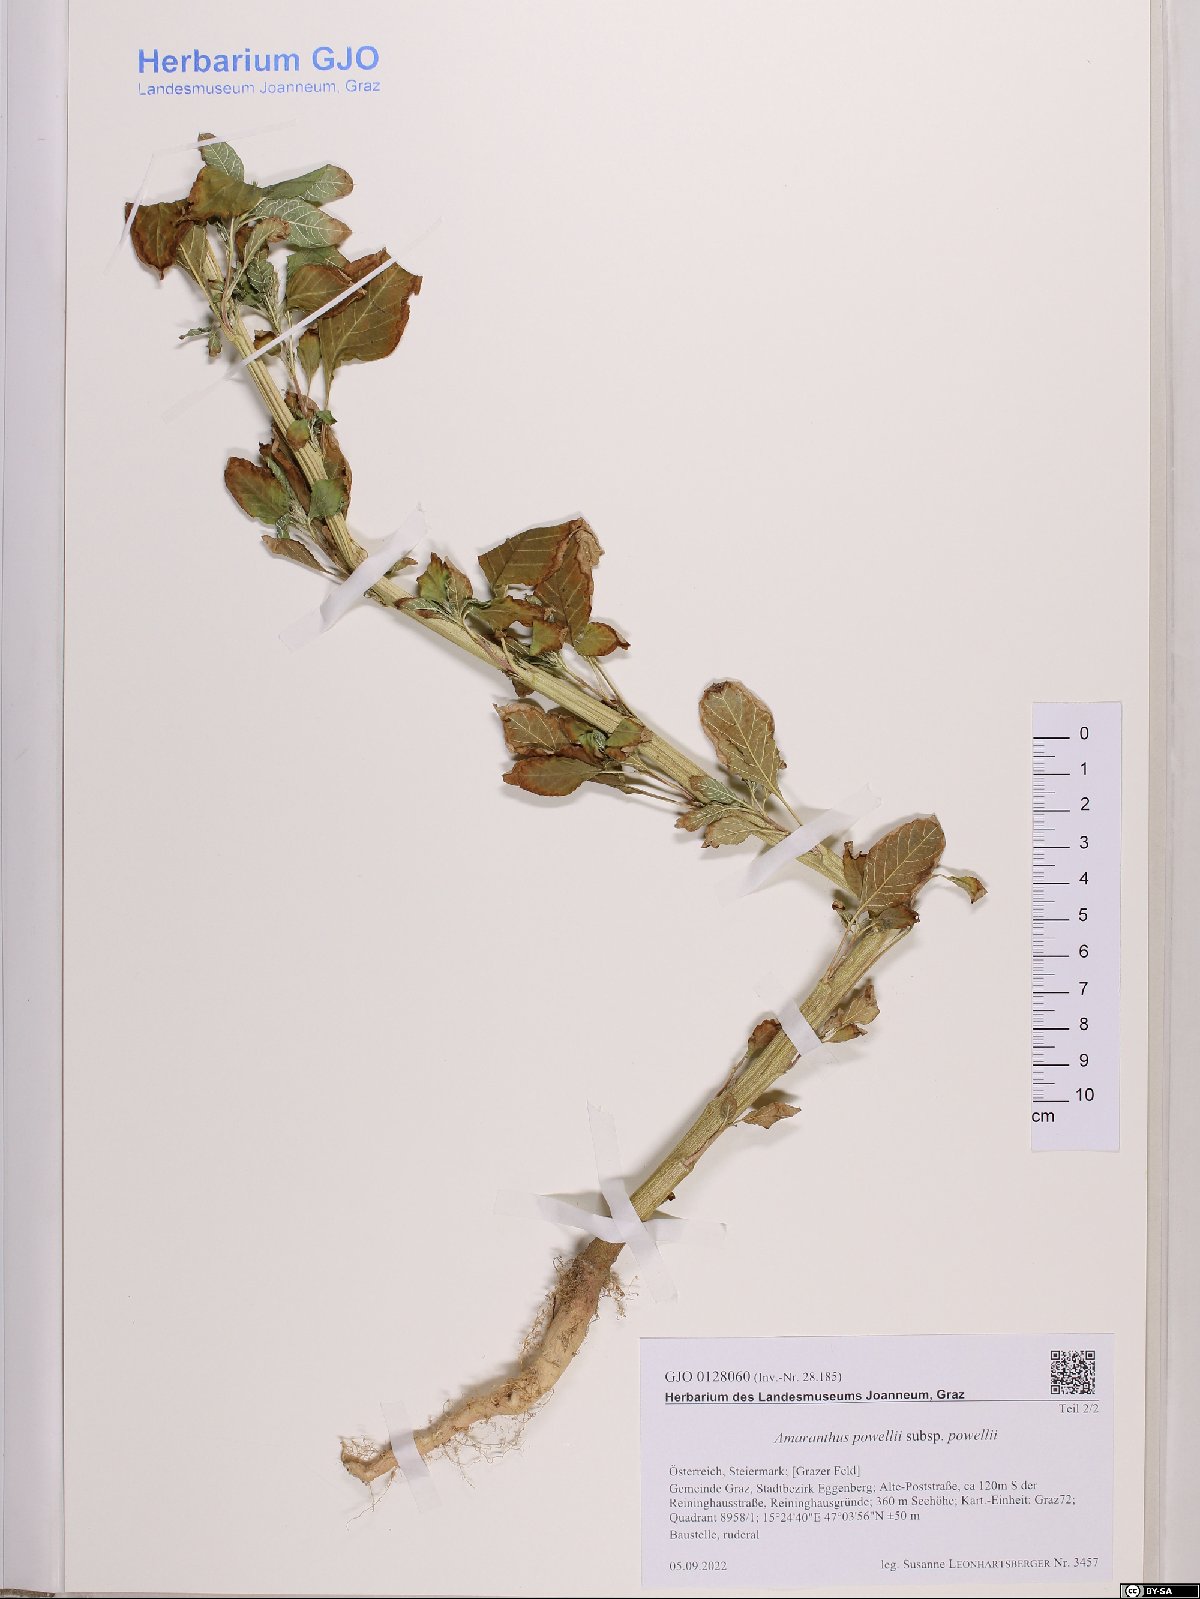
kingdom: Plantae
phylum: Tracheophyta
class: Magnoliopsida
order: Caryophyllales
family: Amaranthaceae
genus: Amaranthus
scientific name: Amaranthus powellii
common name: Powell's amaranth
